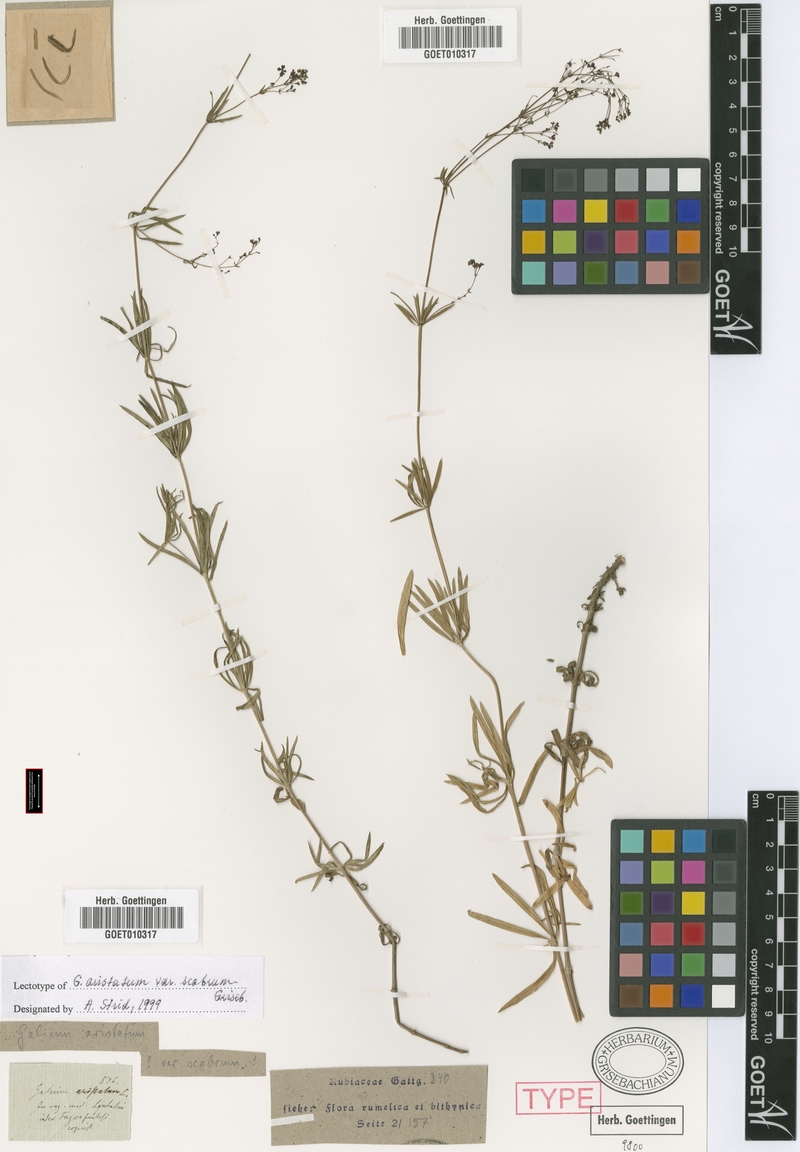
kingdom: Plantae
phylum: Tracheophyta
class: Magnoliopsida
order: Gentianales
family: Rubiaceae
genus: Galium
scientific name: Galium pseudoaristatum
